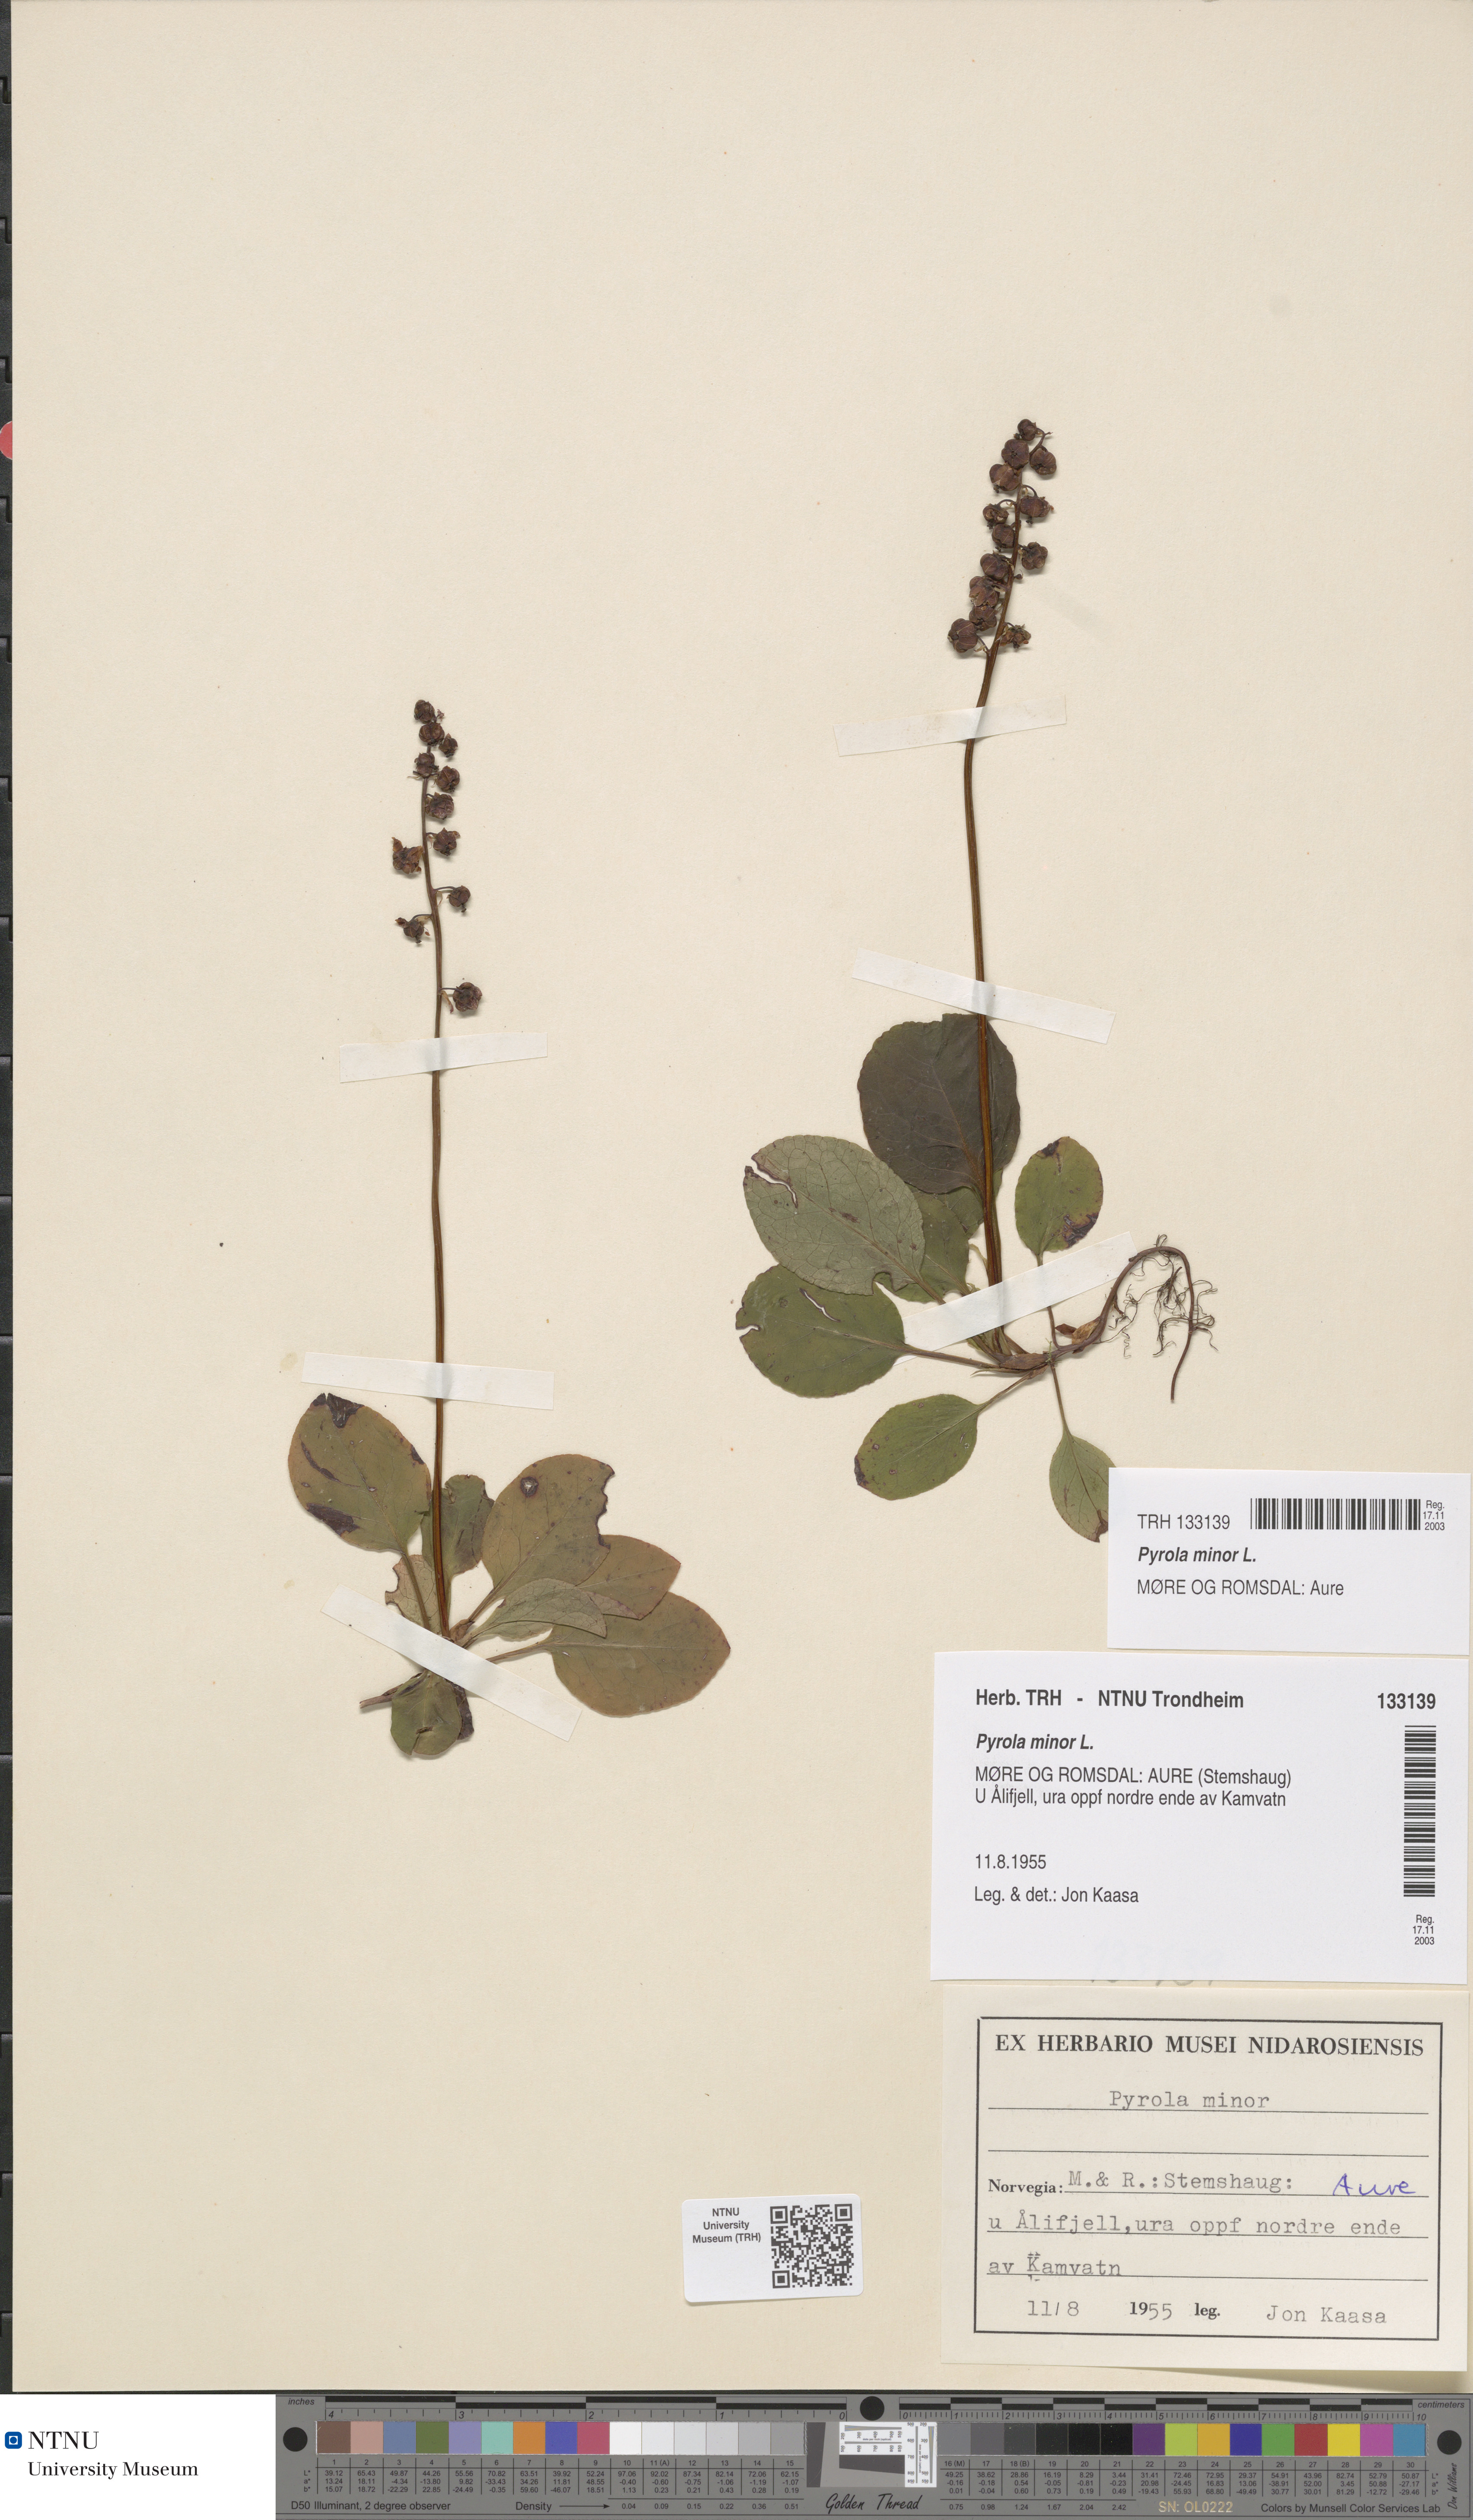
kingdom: Plantae
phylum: Tracheophyta
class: Magnoliopsida
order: Ericales
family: Ericaceae
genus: Pyrola
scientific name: Pyrola minor
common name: Common wintergreen
